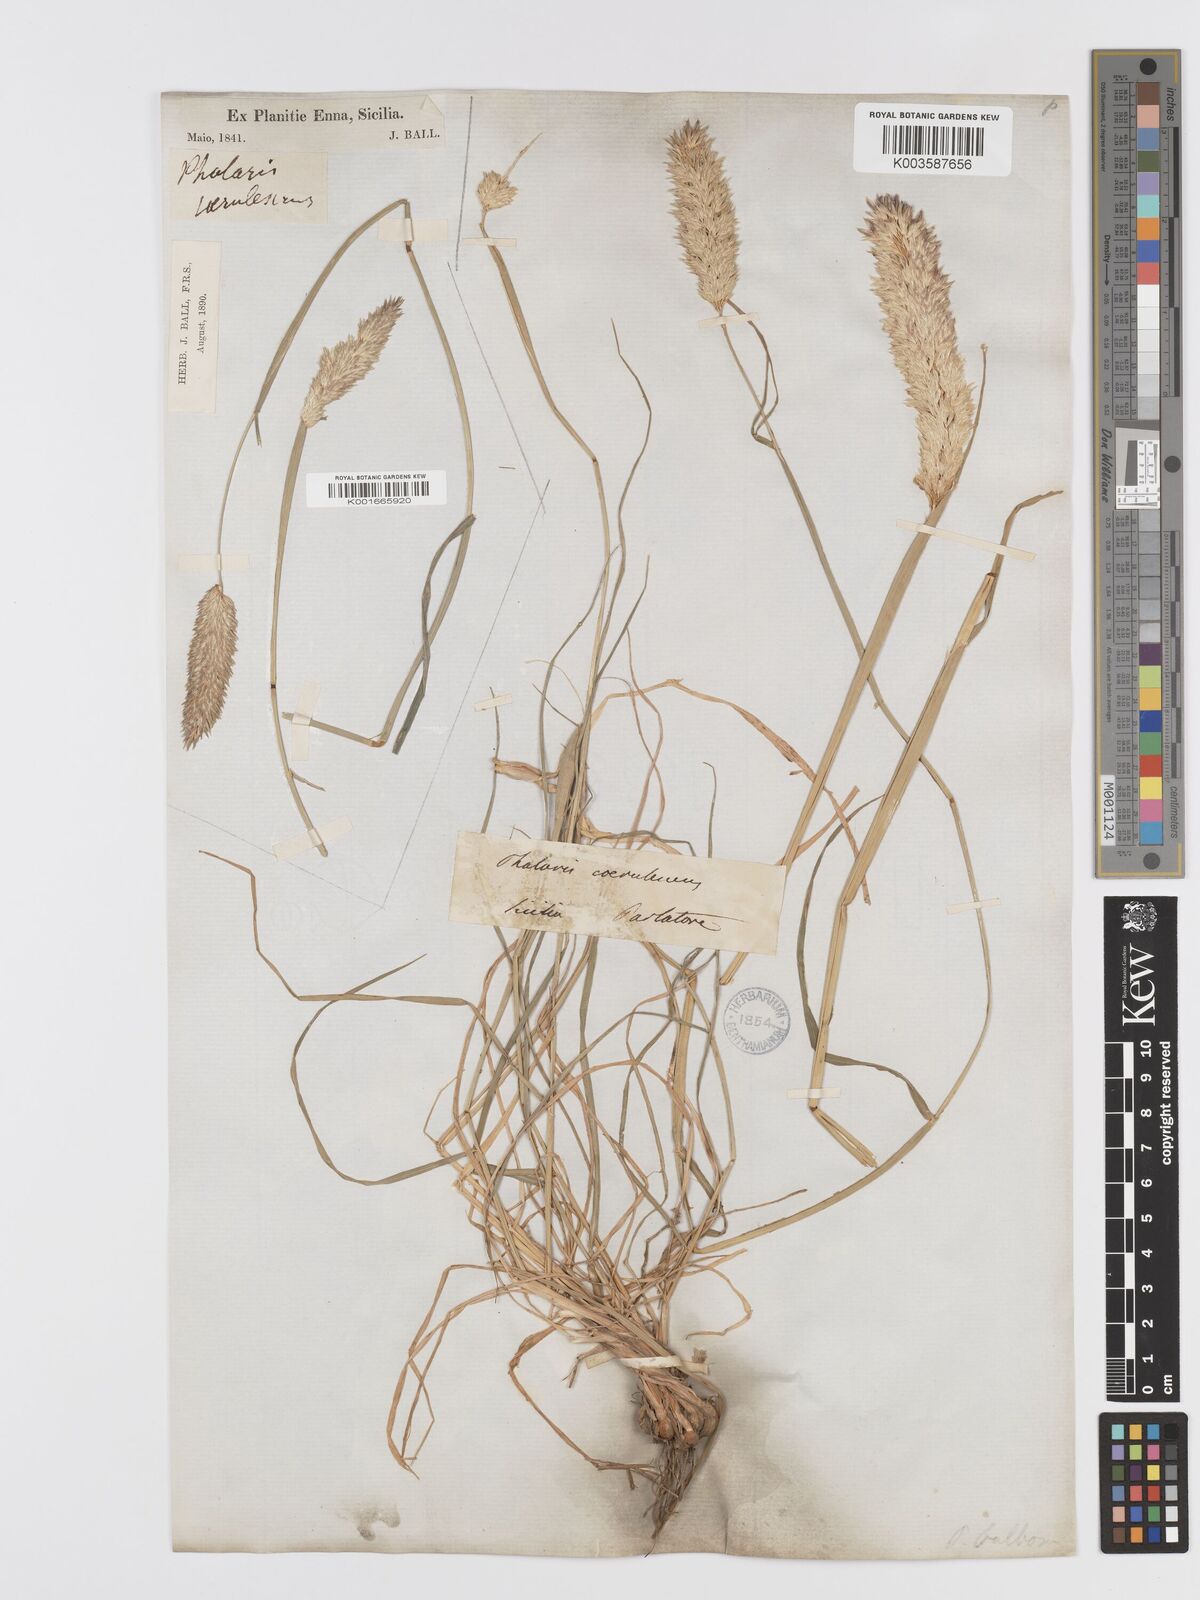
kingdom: Plantae
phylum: Tracheophyta
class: Liliopsida
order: Poales
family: Poaceae
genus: Phalaris
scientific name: Phalaris coerulescens
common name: Sunolgrass
